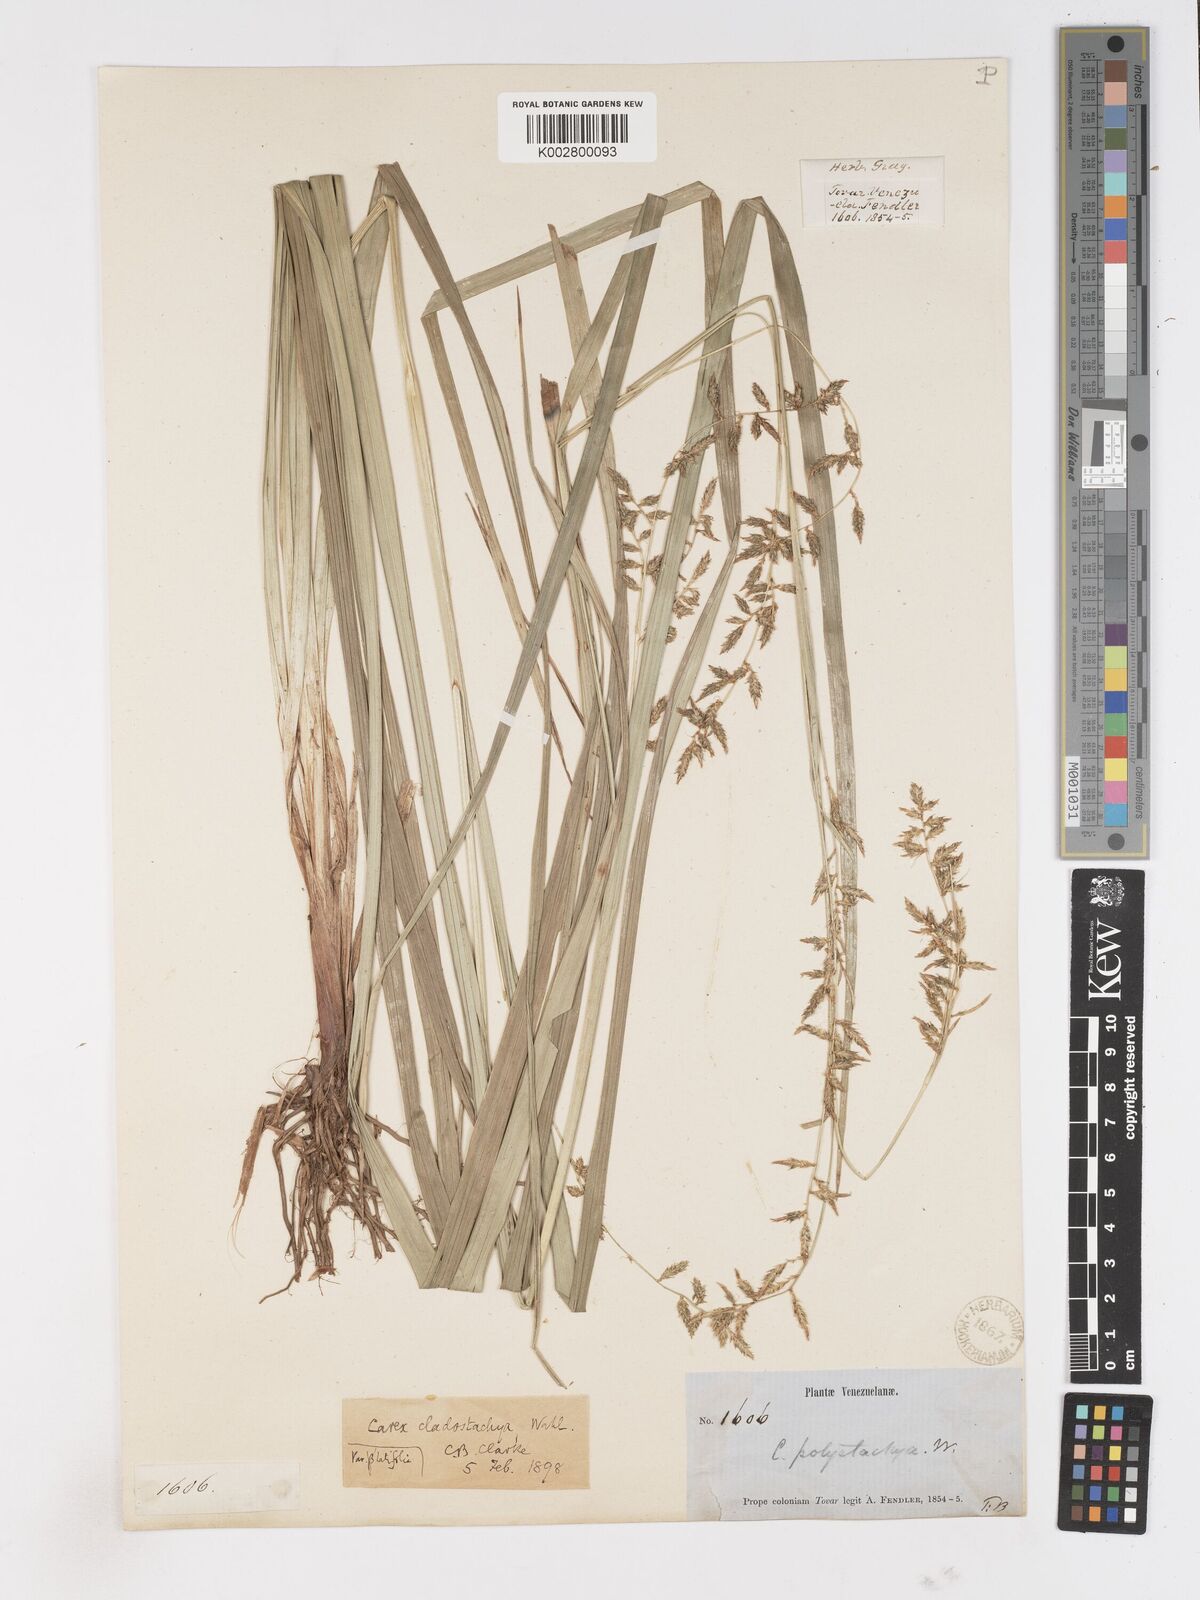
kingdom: Plantae
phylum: Tracheophyta
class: Liliopsida
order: Poales
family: Cyperaceae
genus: Carex
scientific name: Carex polystachya
